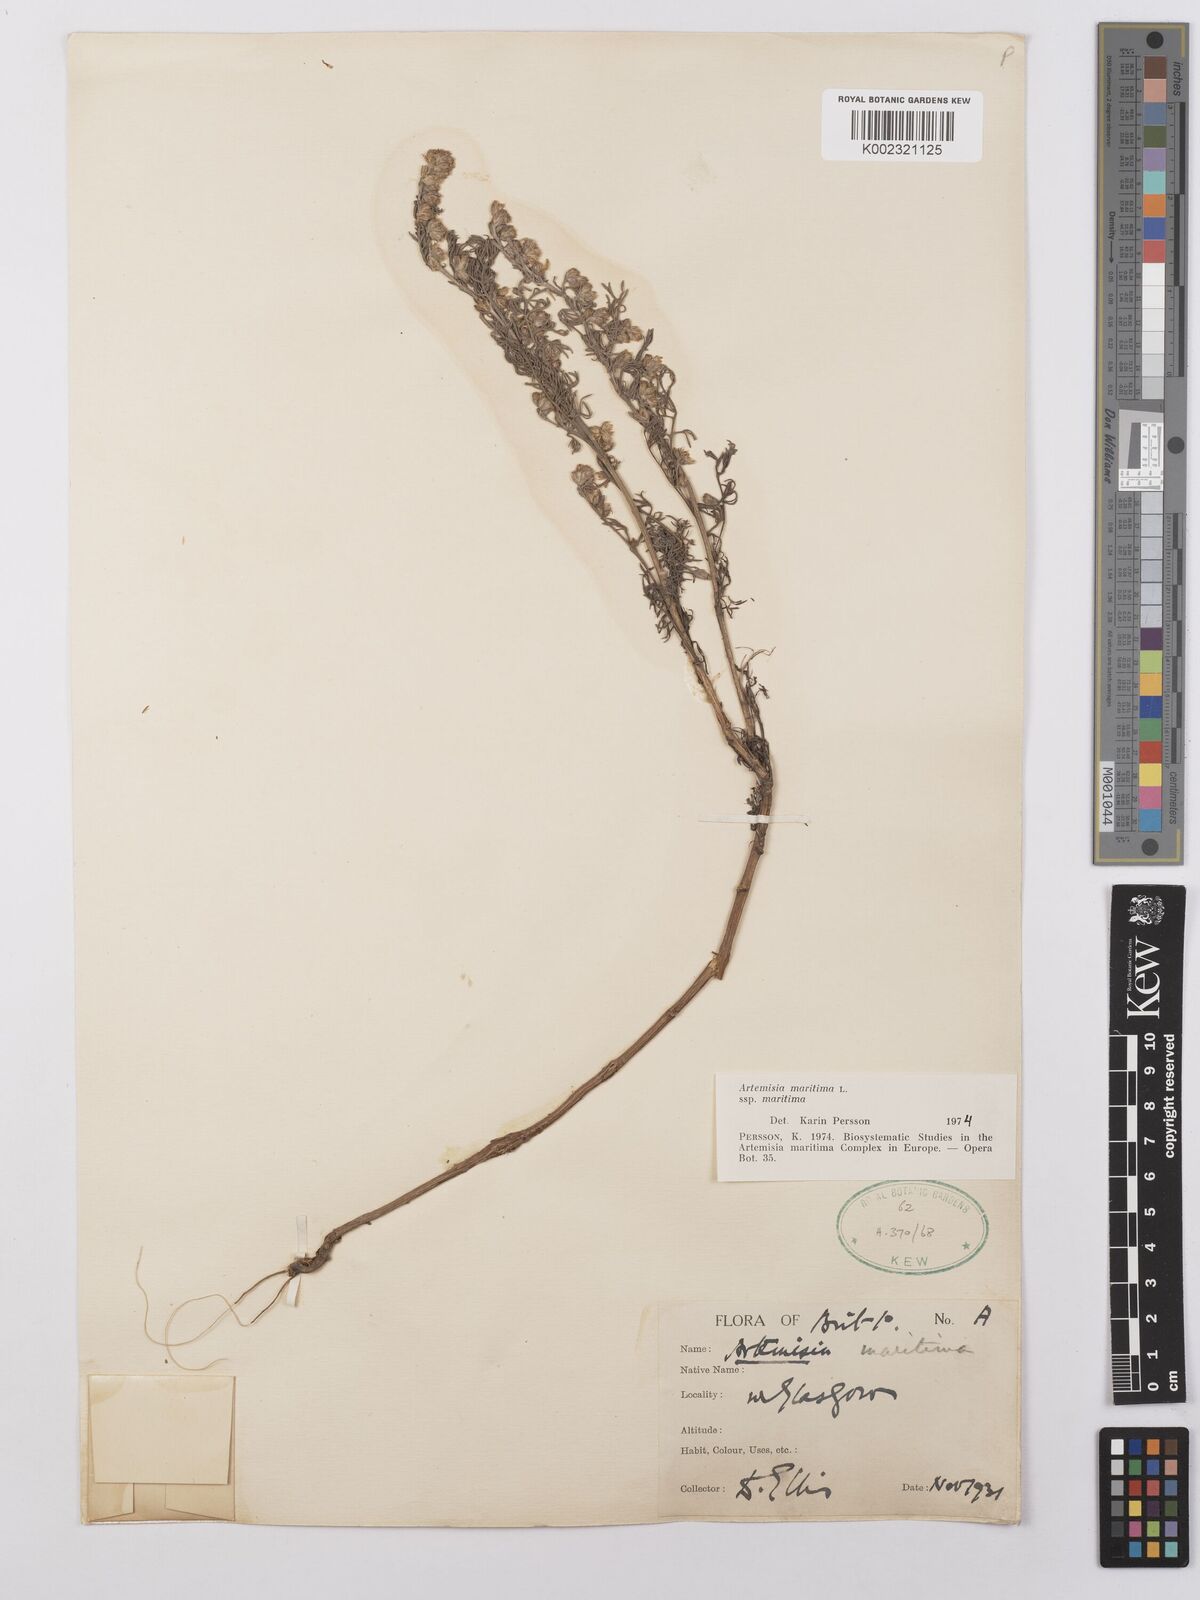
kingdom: Plantae
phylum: Tracheophyta
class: Magnoliopsida
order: Asterales
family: Asteraceae
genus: Artemisia
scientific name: Artemisia maritima
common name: Wormseed
